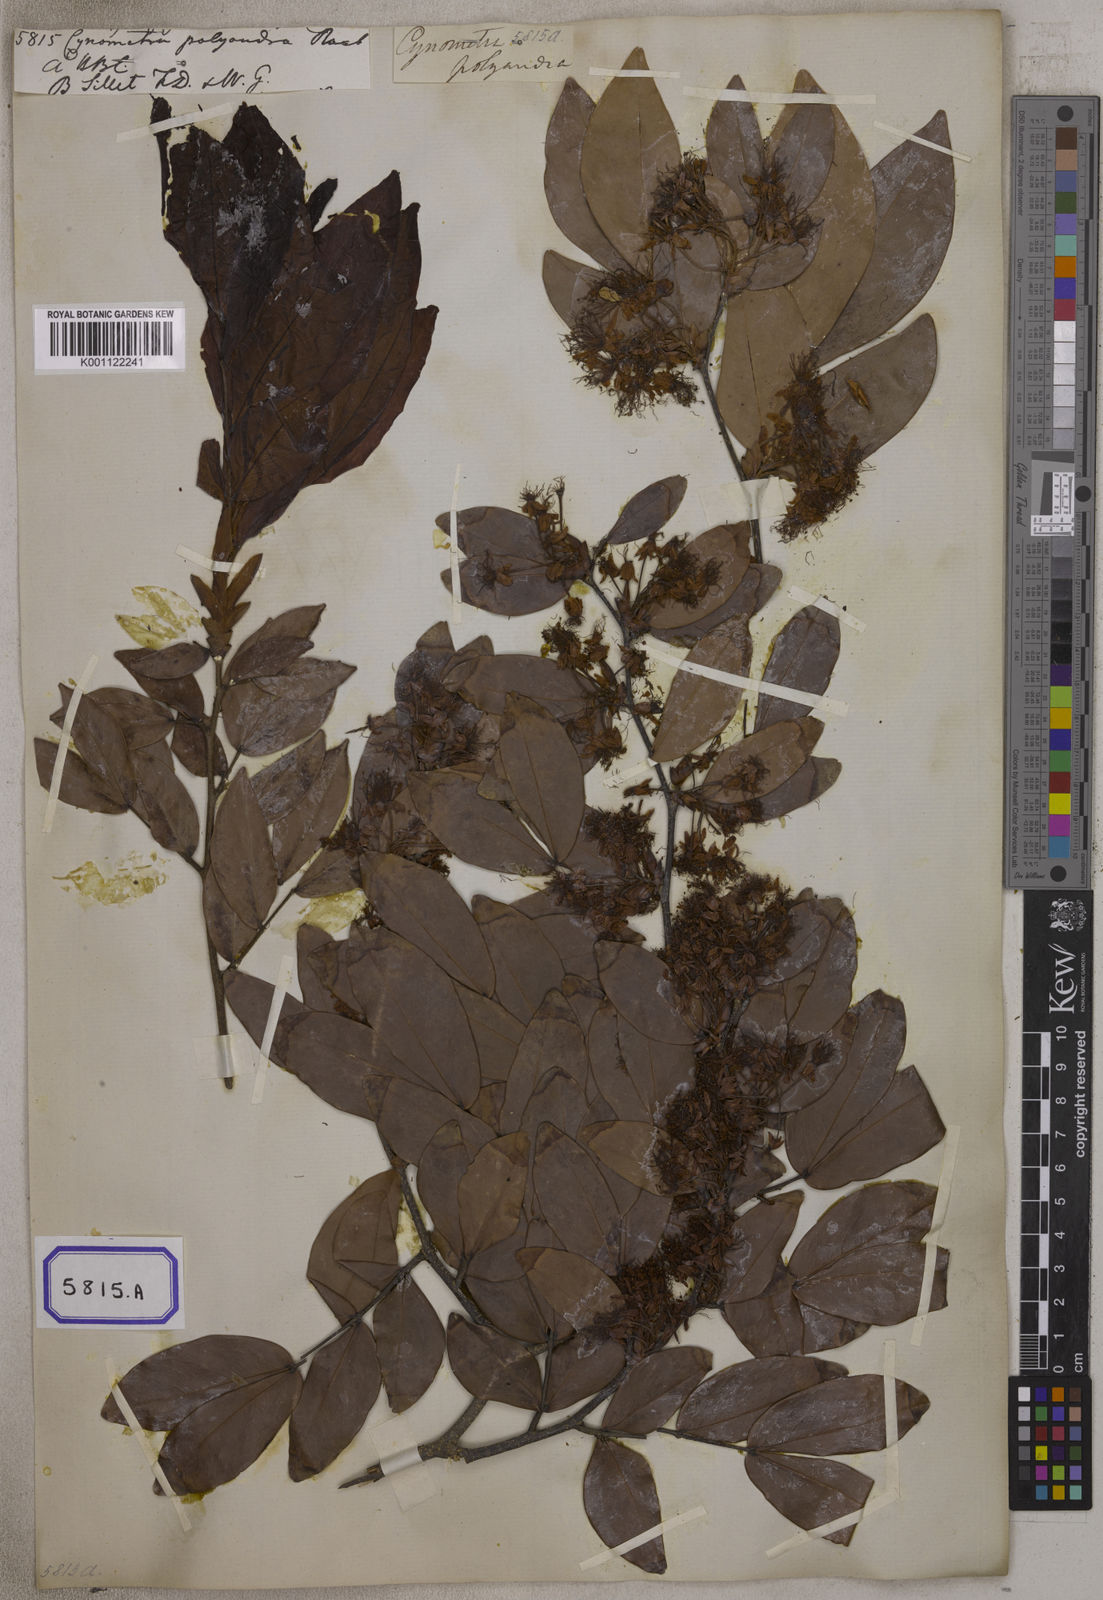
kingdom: Plantae
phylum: Tracheophyta
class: Magnoliopsida
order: Fabales
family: Fabaceae
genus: Cynometra
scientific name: Cynometra polyandra
